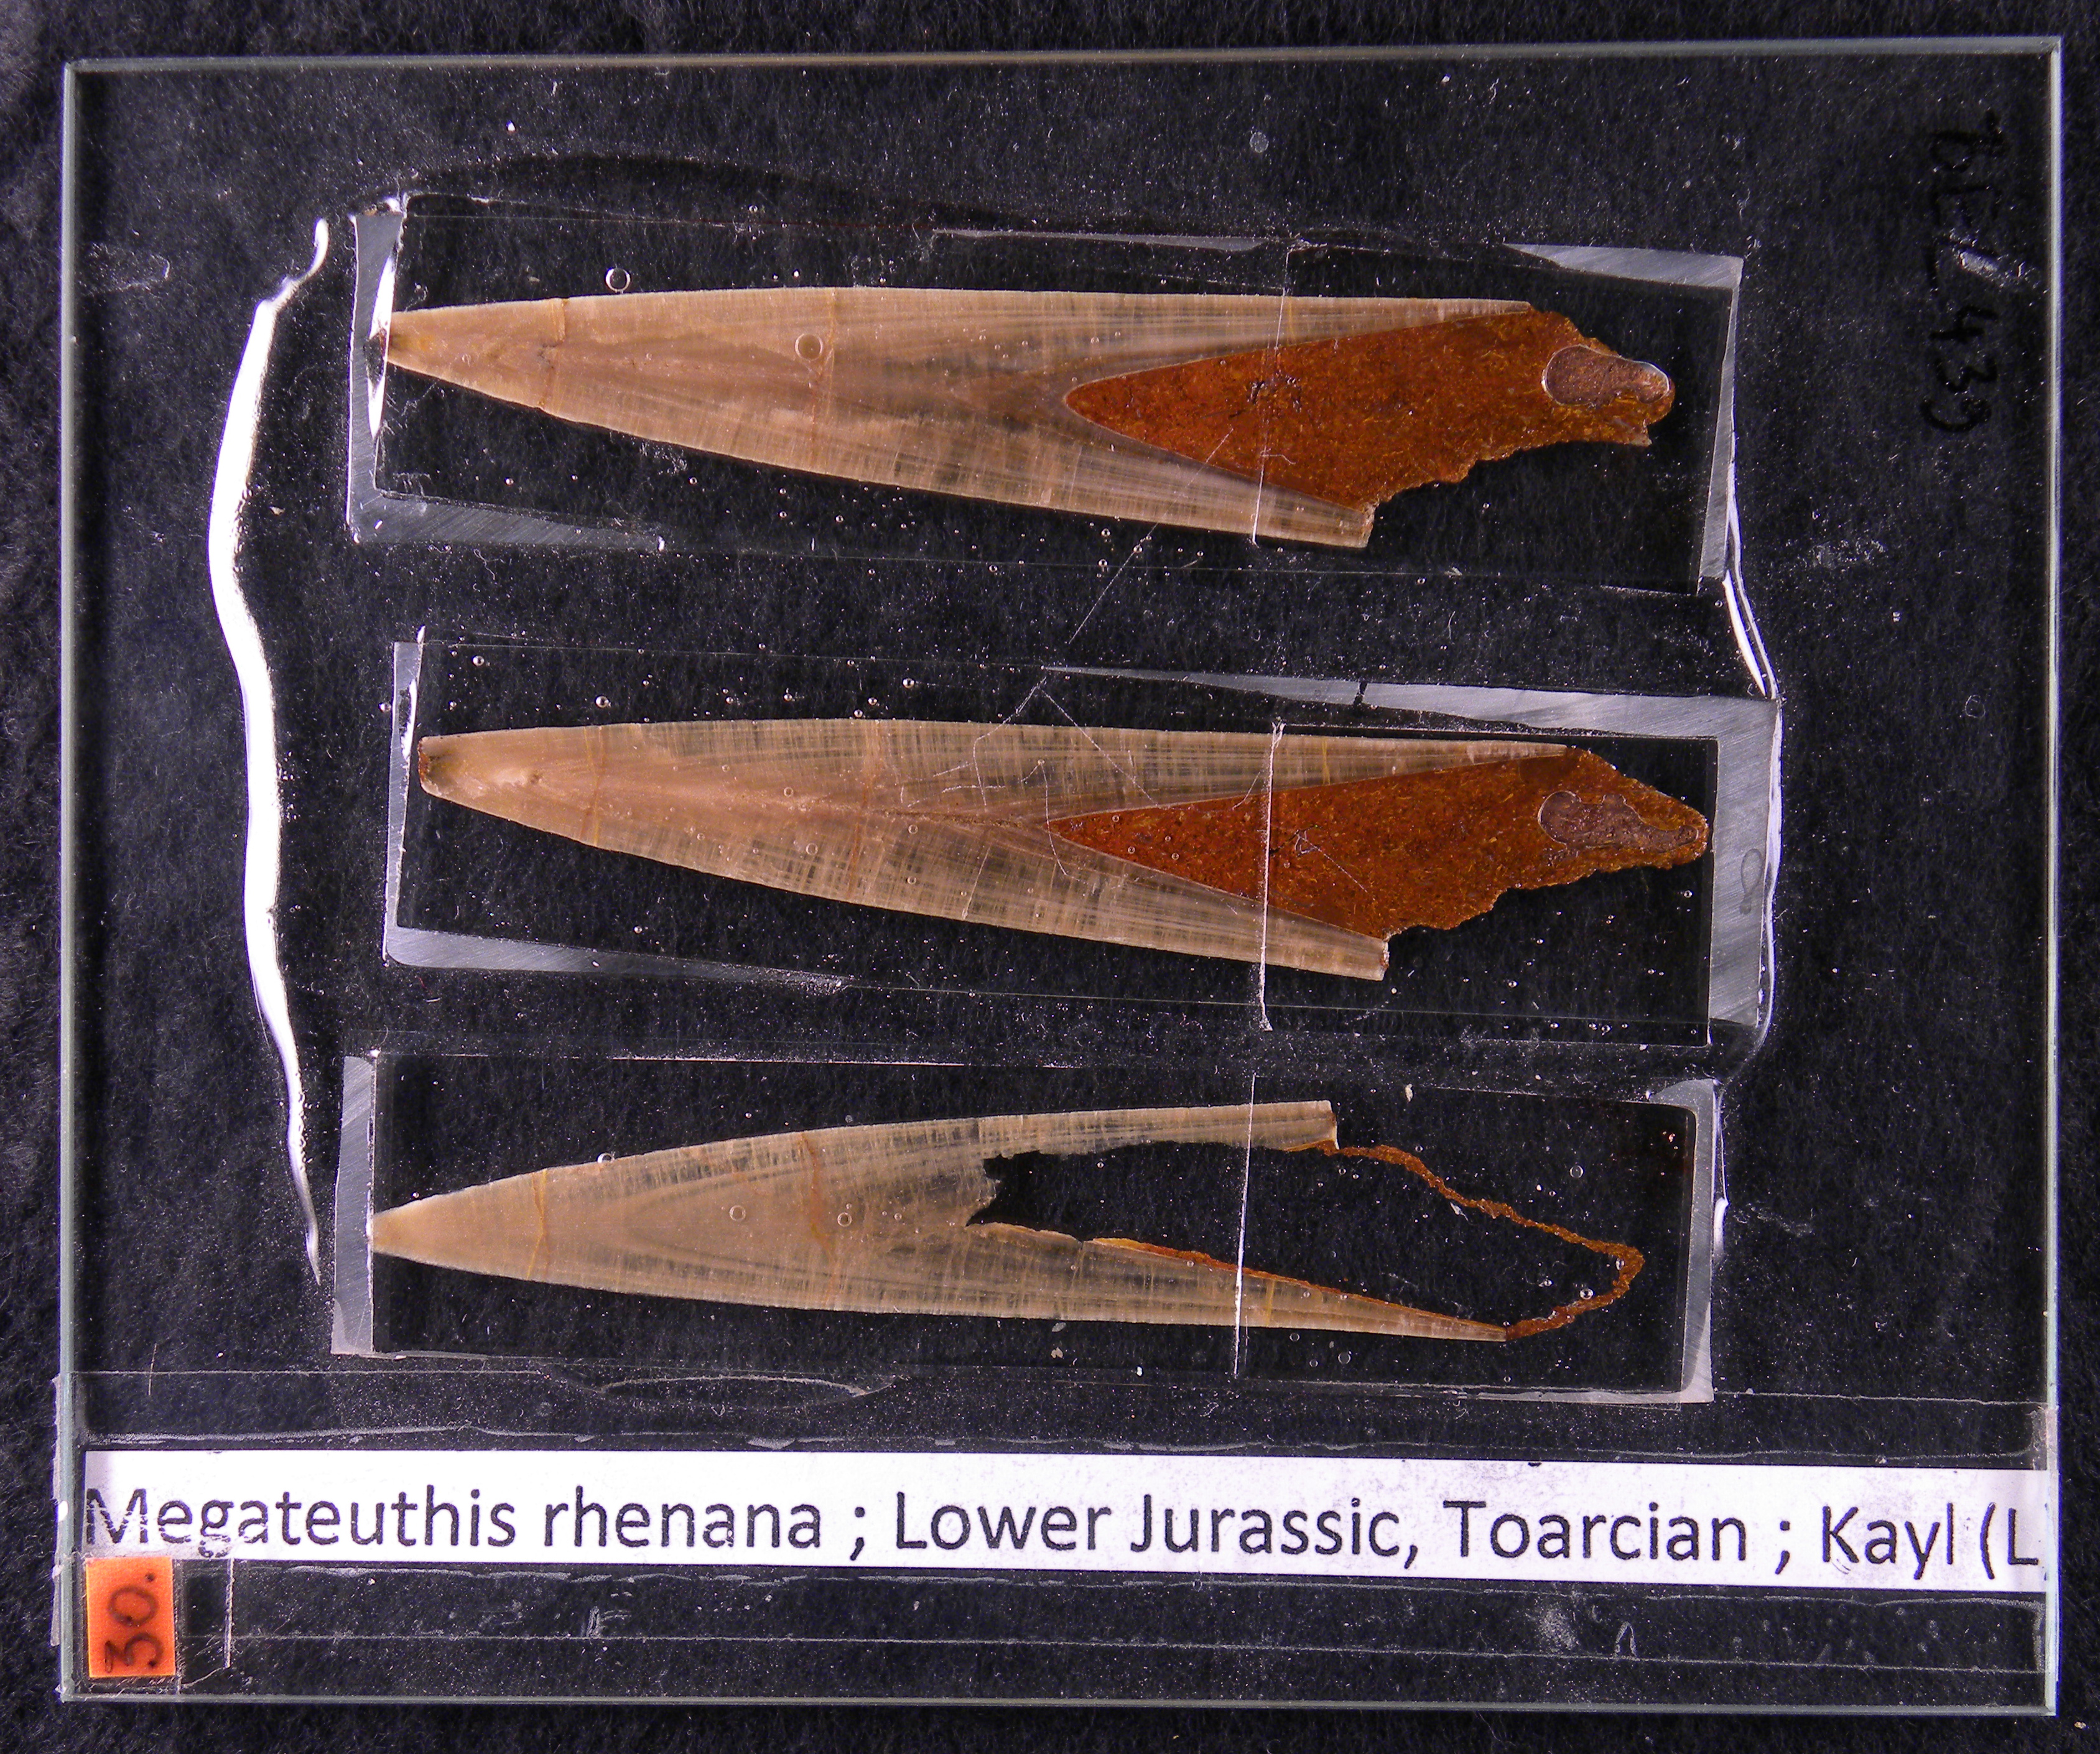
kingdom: Animalia
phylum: Mollusca
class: Cephalopoda
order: Belemnitida
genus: Mesoteuthis
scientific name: Mesoteuthis
